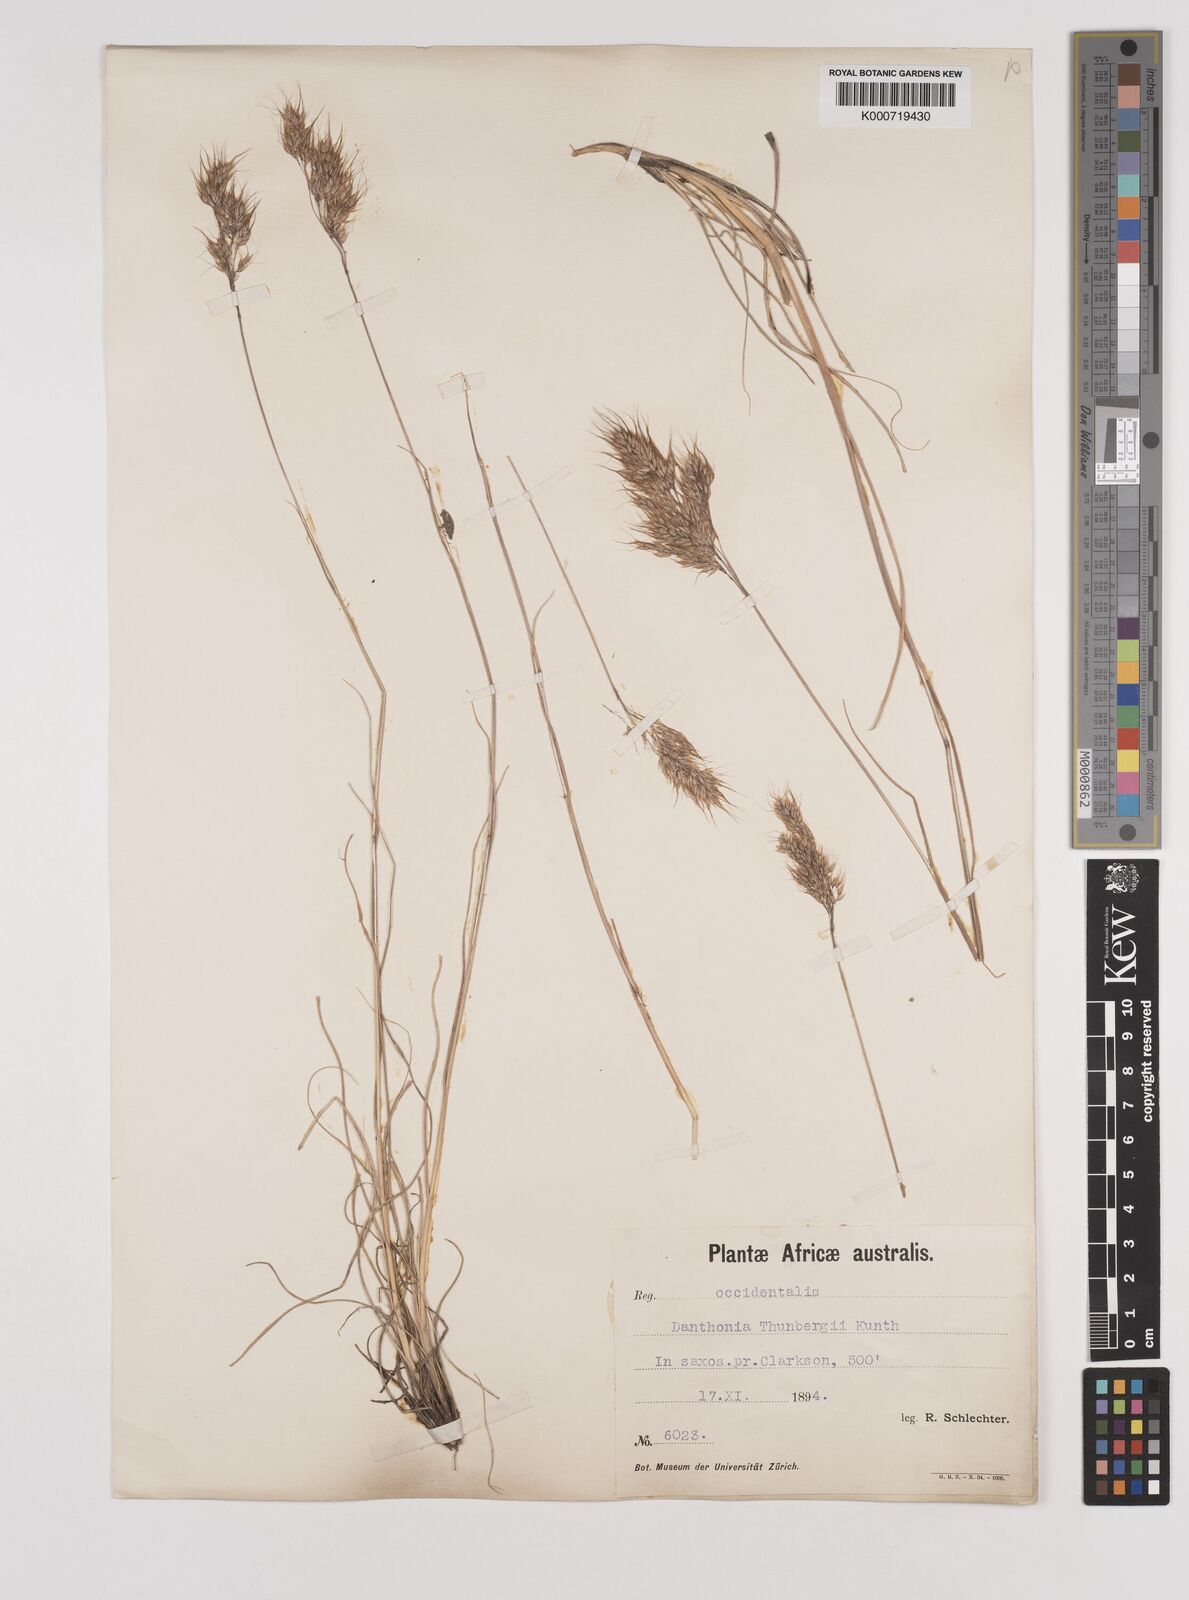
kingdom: Plantae
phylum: Tracheophyta
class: Liliopsida
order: Poales
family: Poaceae
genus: Pentameris
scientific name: Pentameris triseta
